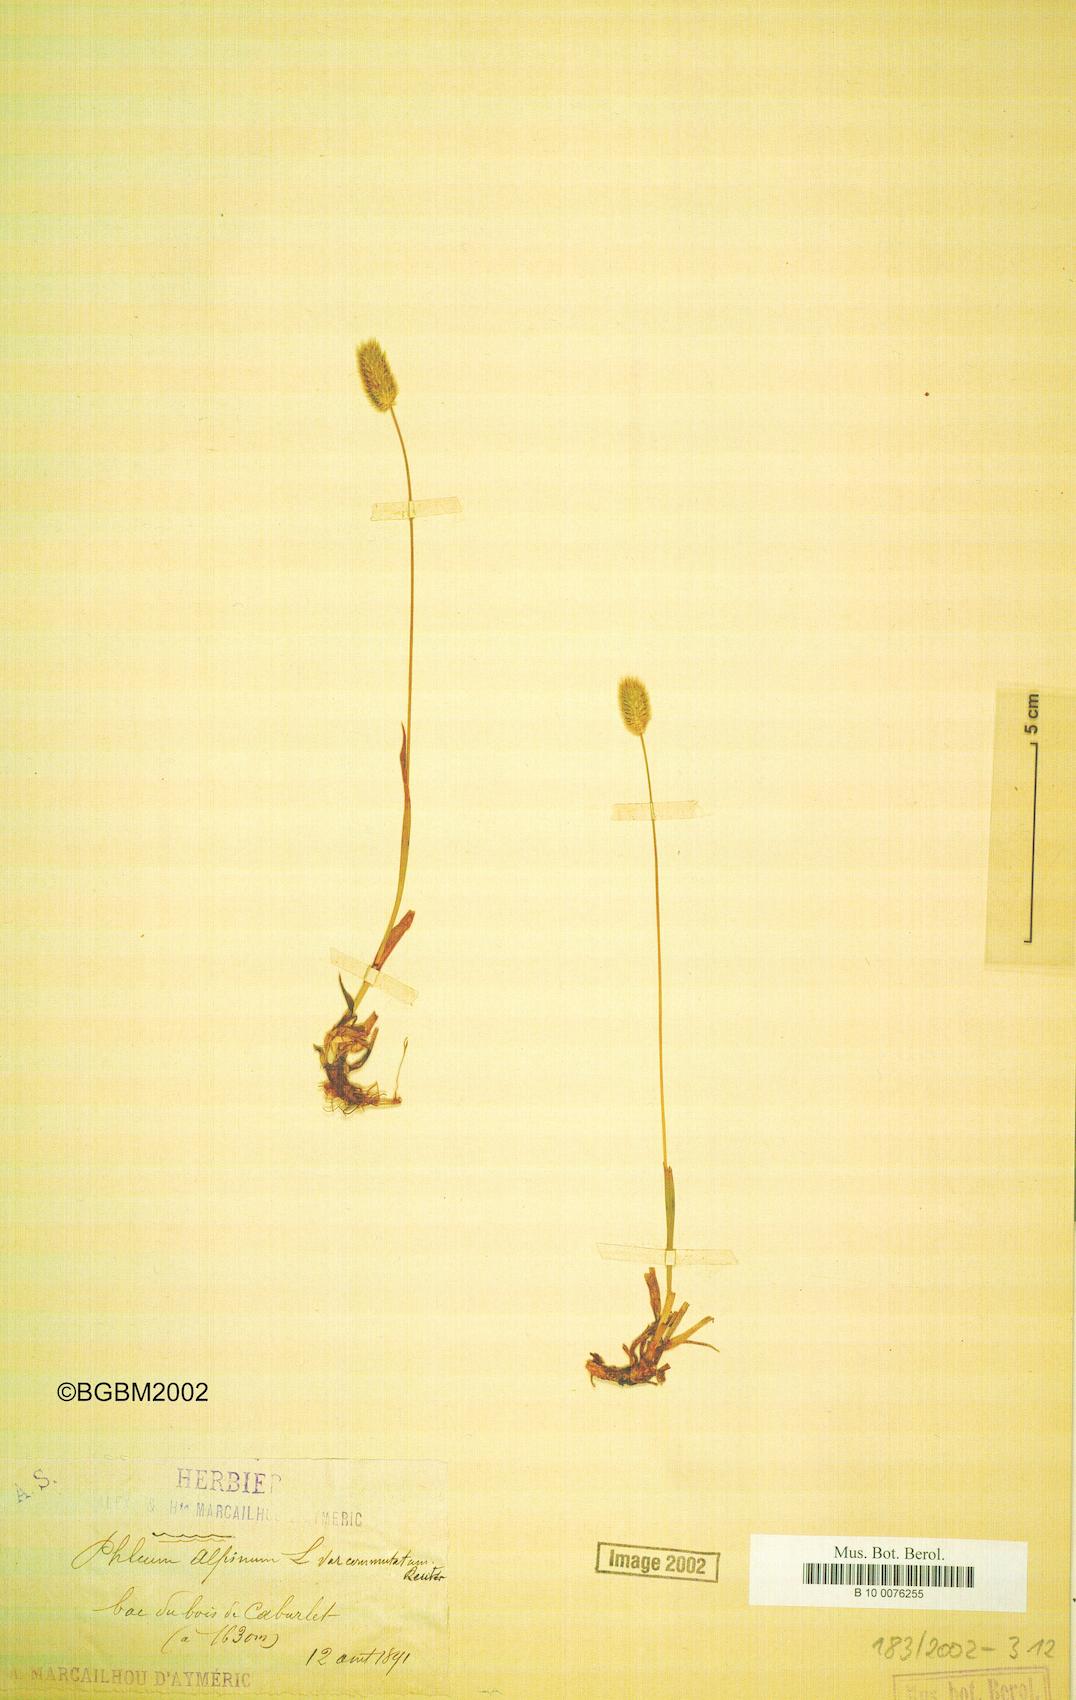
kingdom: Plantae
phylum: Tracheophyta
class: Liliopsida
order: Poales
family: Poaceae
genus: Phleum
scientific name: Phleum alpinum
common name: Alpine cat's-tail
